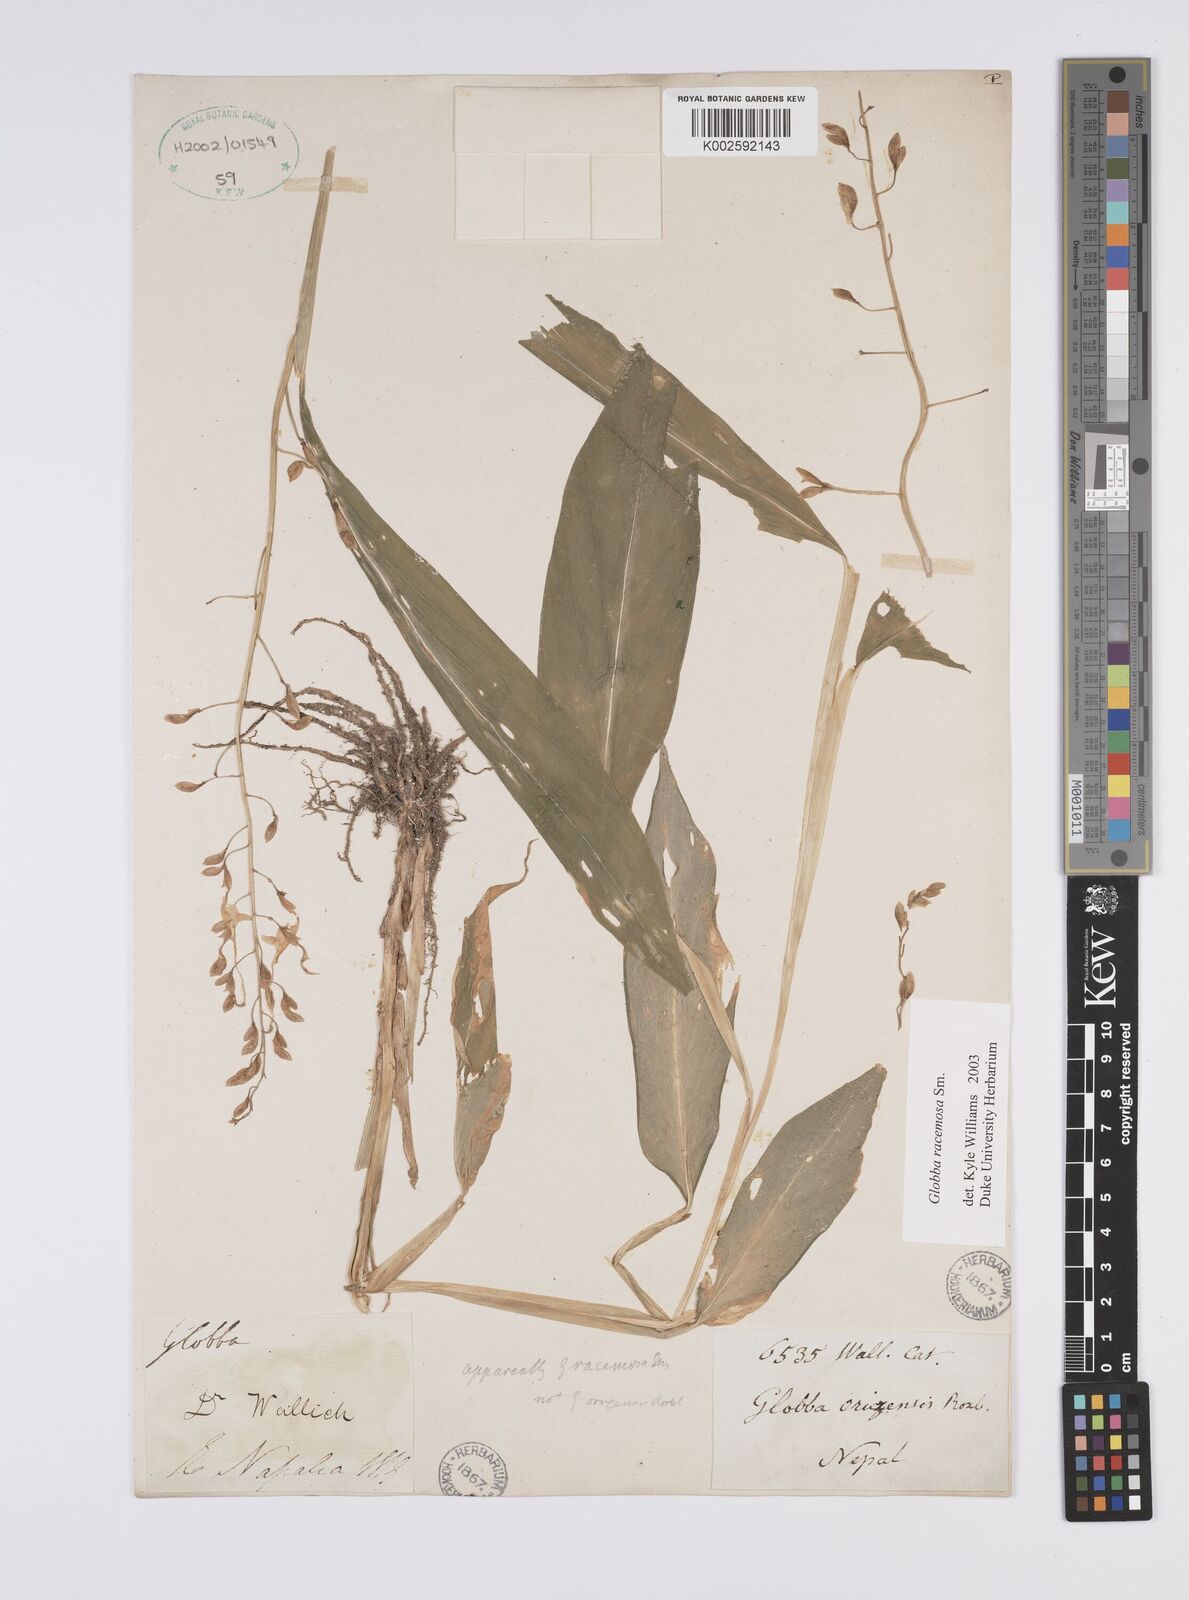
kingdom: Plantae
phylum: Tracheophyta
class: Liliopsida
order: Zingiberales
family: Zingiberaceae
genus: Globba
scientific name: Globba racemosa
